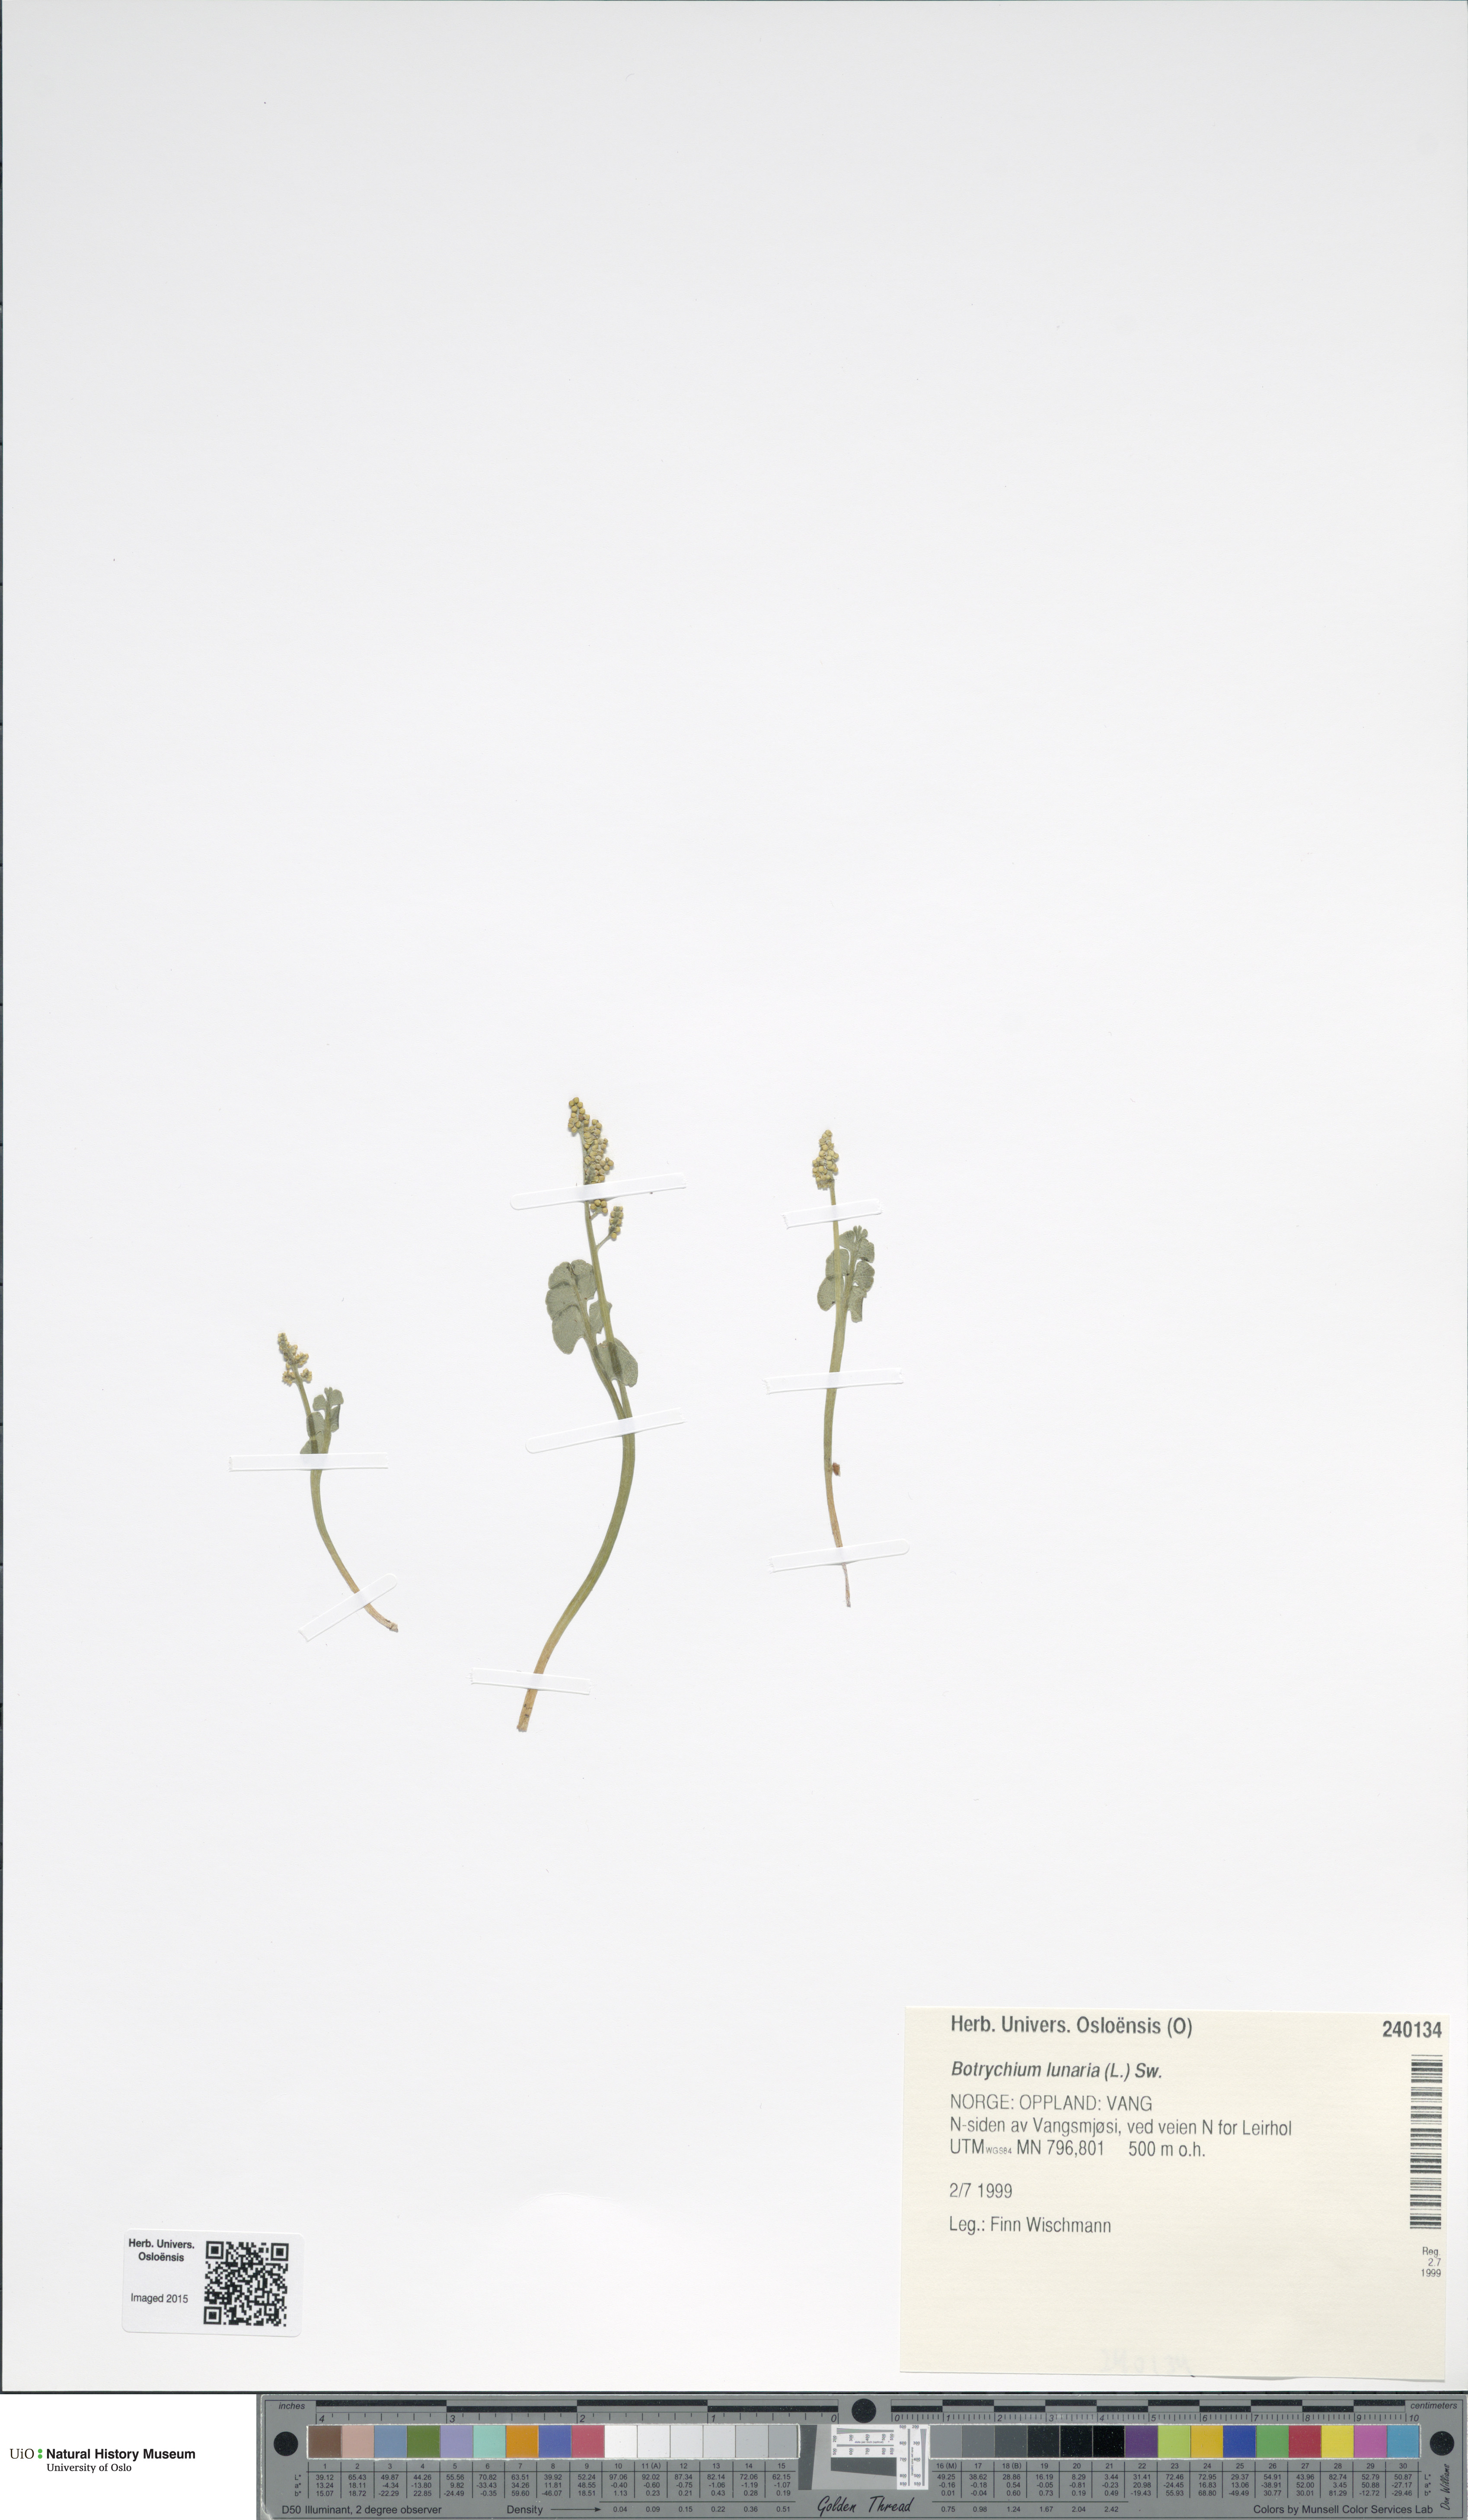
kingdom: Plantae
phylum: Tracheophyta
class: Polypodiopsida
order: Ophioglossales
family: Ophioglossaceae
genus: Botrychium
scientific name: Botrychium lunaria
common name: Moonwort
